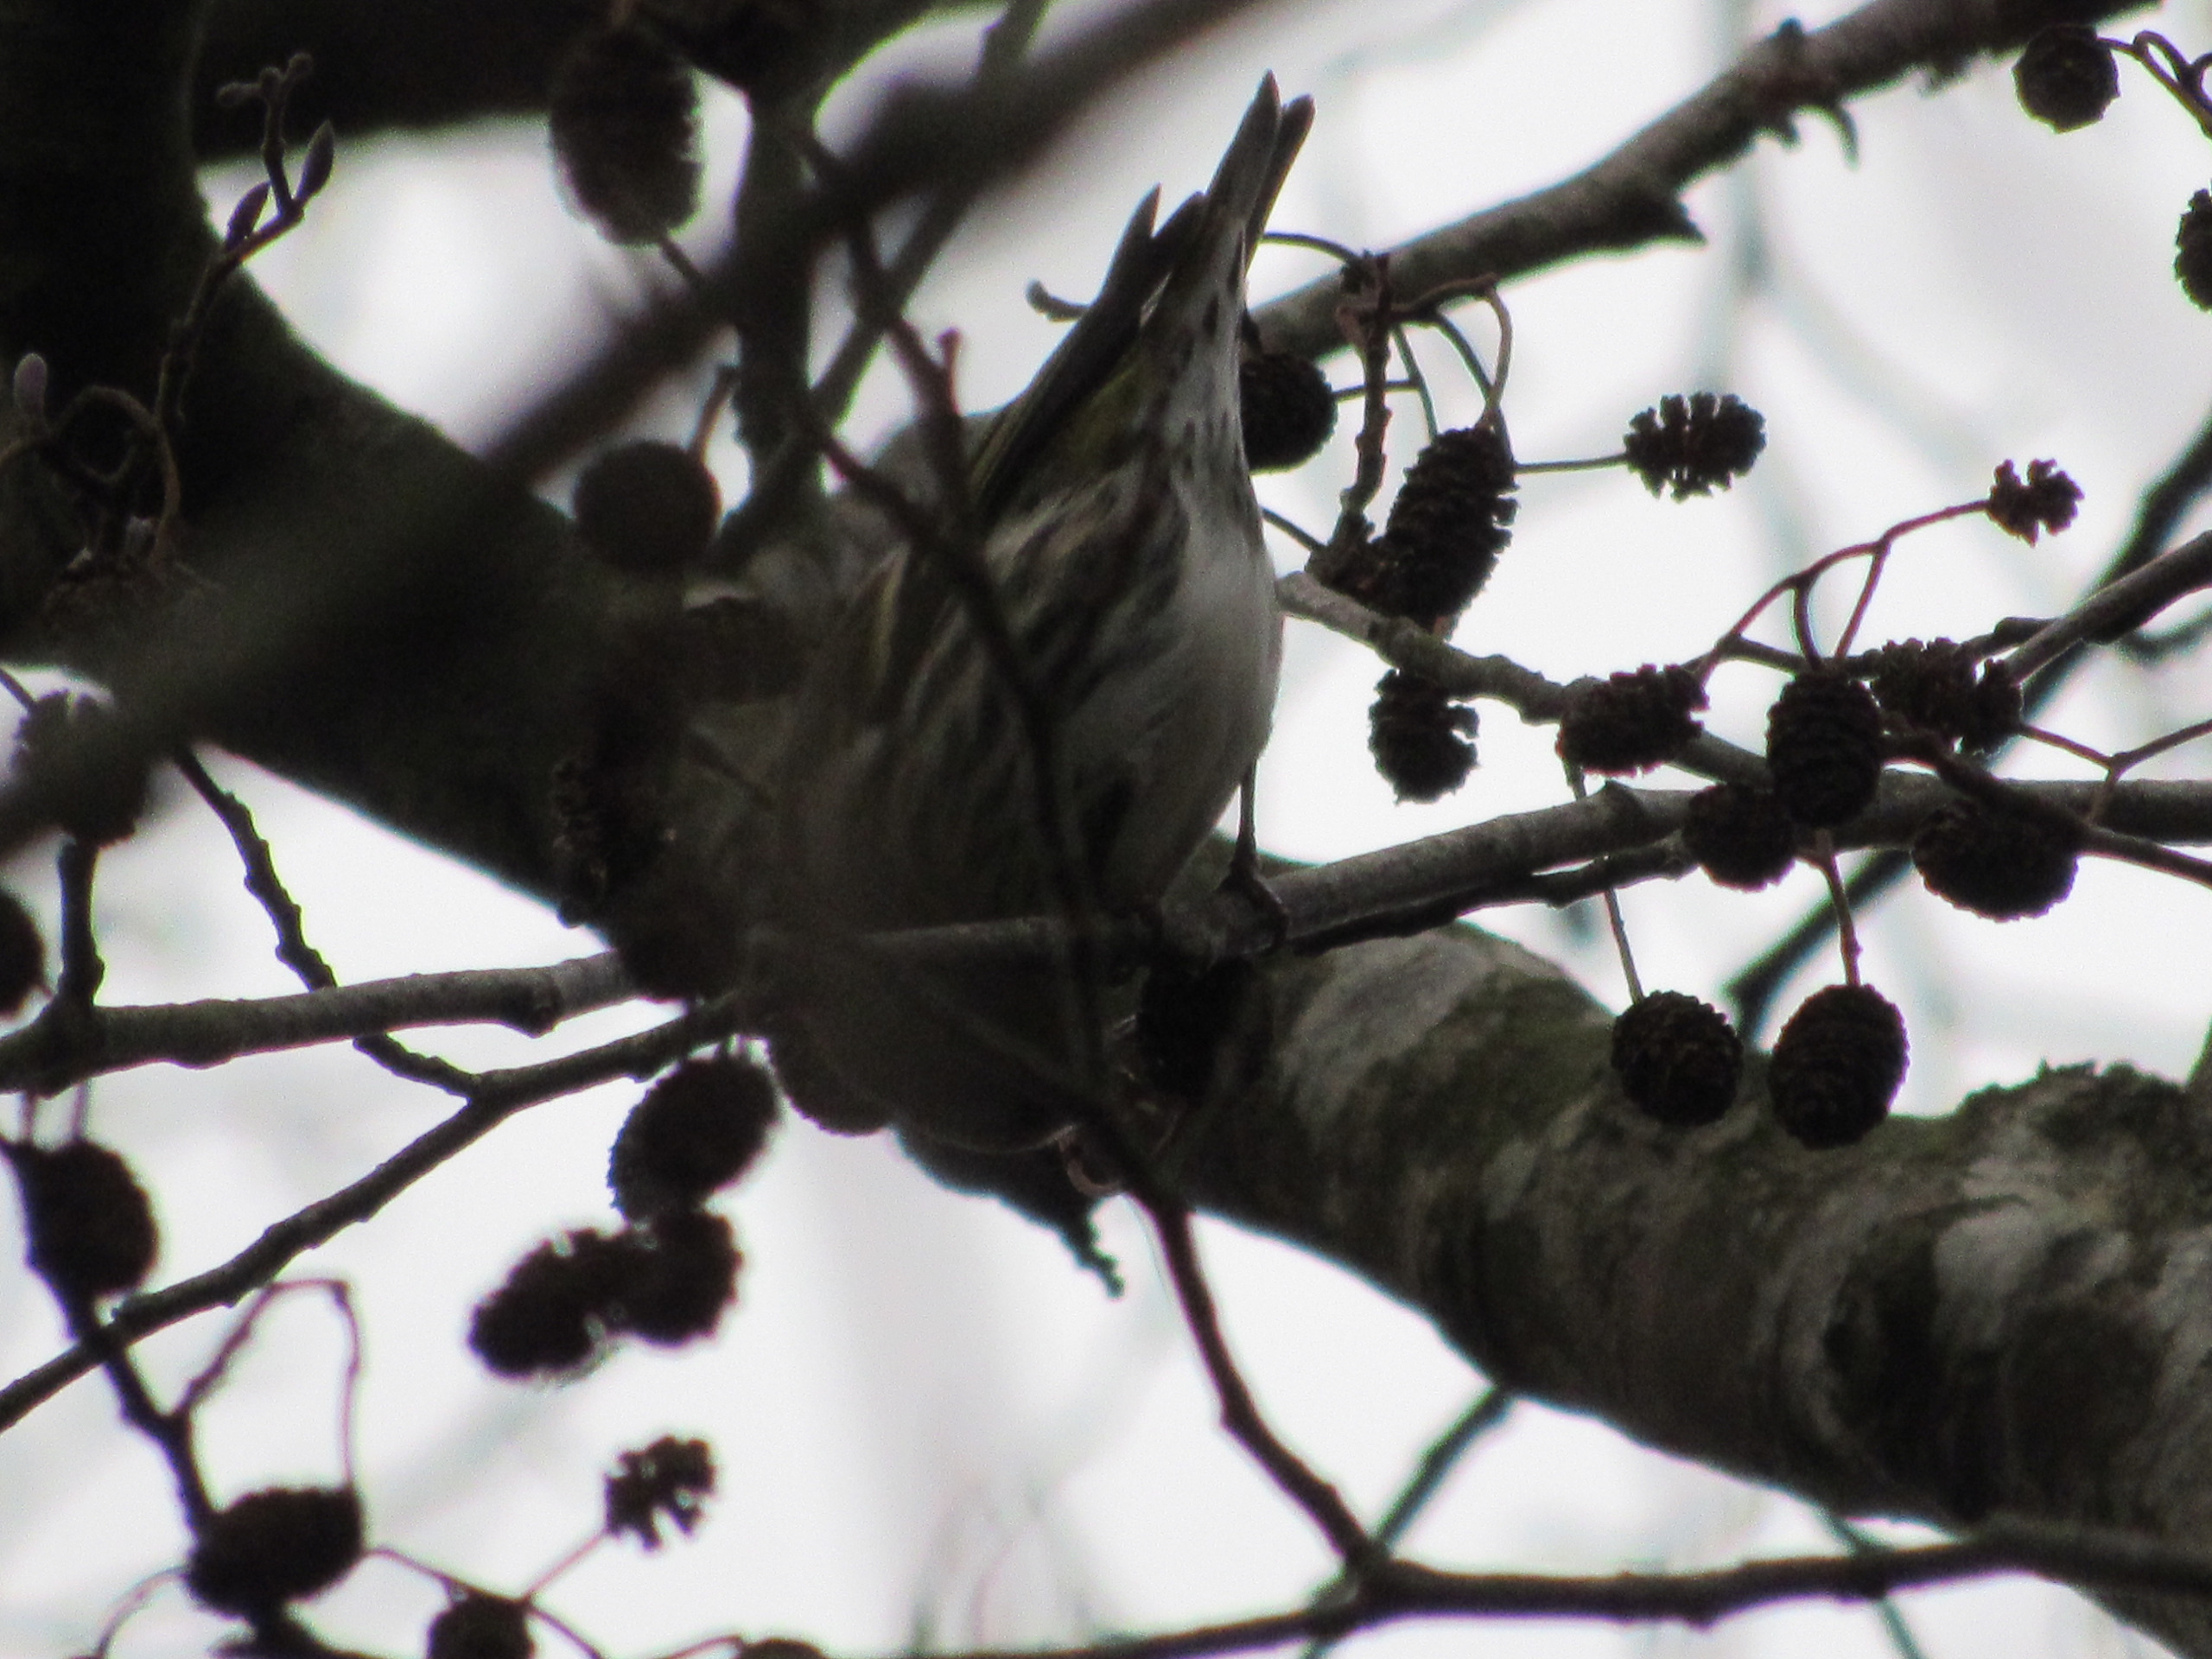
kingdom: Animalia
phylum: Chordata
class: Aves
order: Passeriformes
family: Fringillidae
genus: Spinus
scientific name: Spinus spinus
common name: Grønsisken
